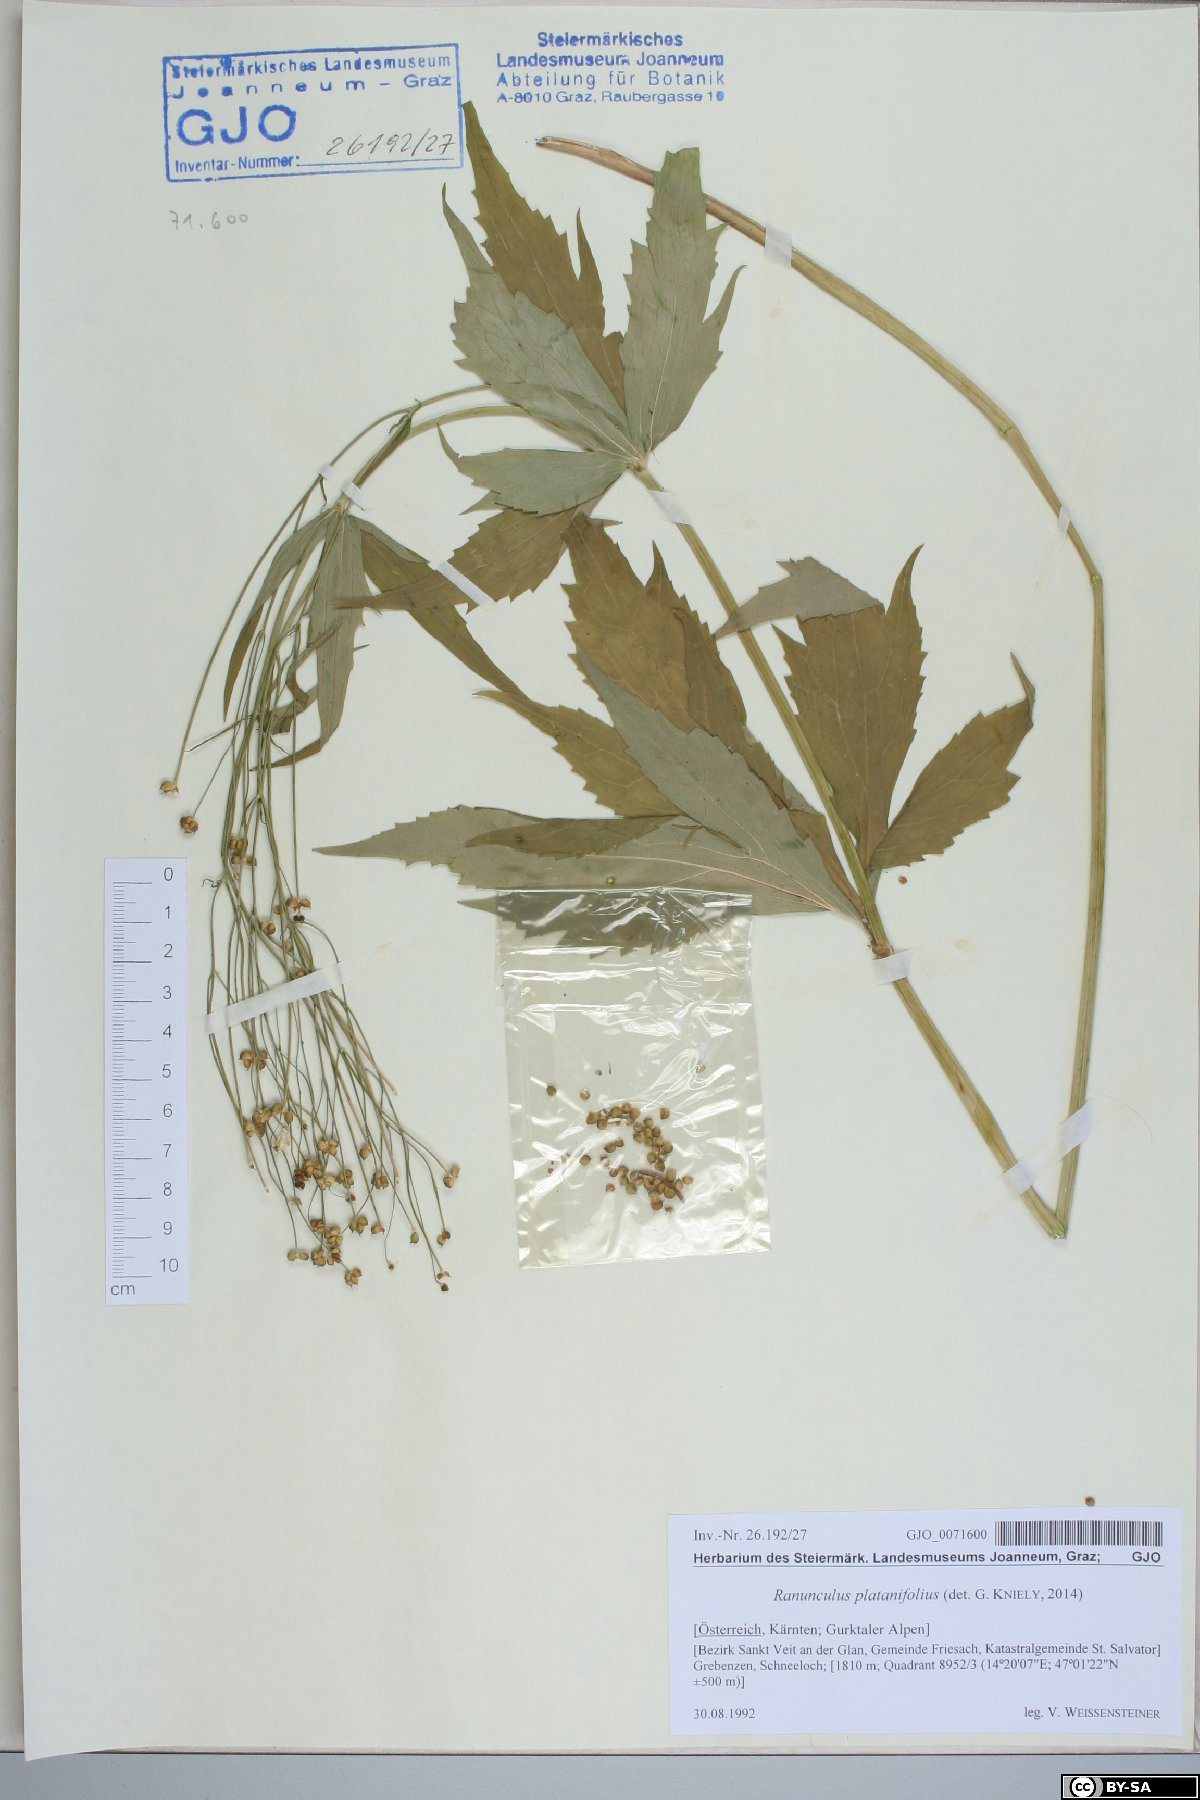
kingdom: Plantae
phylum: Tracheophyta
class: Magnoliopsida
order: Ranunculales
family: Ranunculaceae
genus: Ranunculus
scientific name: Ranunculus platanifolius
